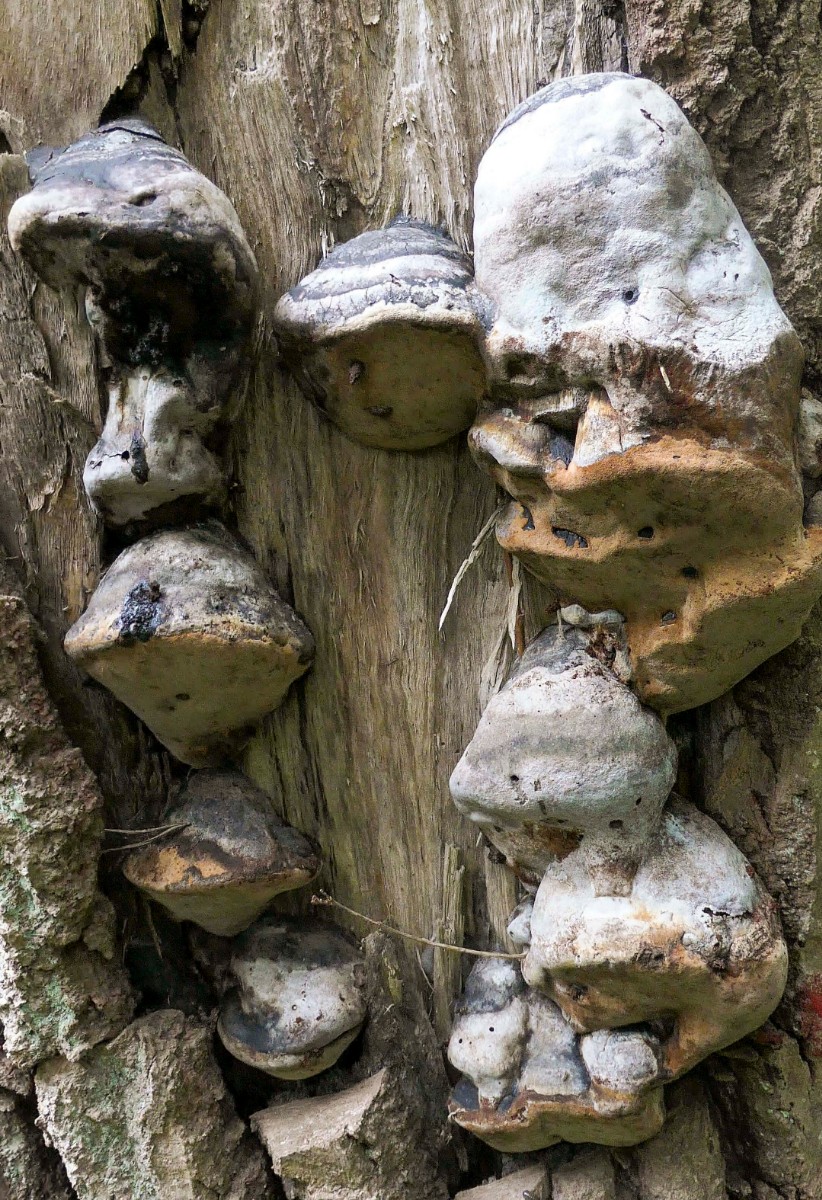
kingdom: Fungi
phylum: Basidiomycota
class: Agaricomycetes
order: Hymenochaetales
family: Hymenochaetaceae
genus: Phellinus
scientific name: Phellinus populicola
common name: poppel-ildporesvamp
